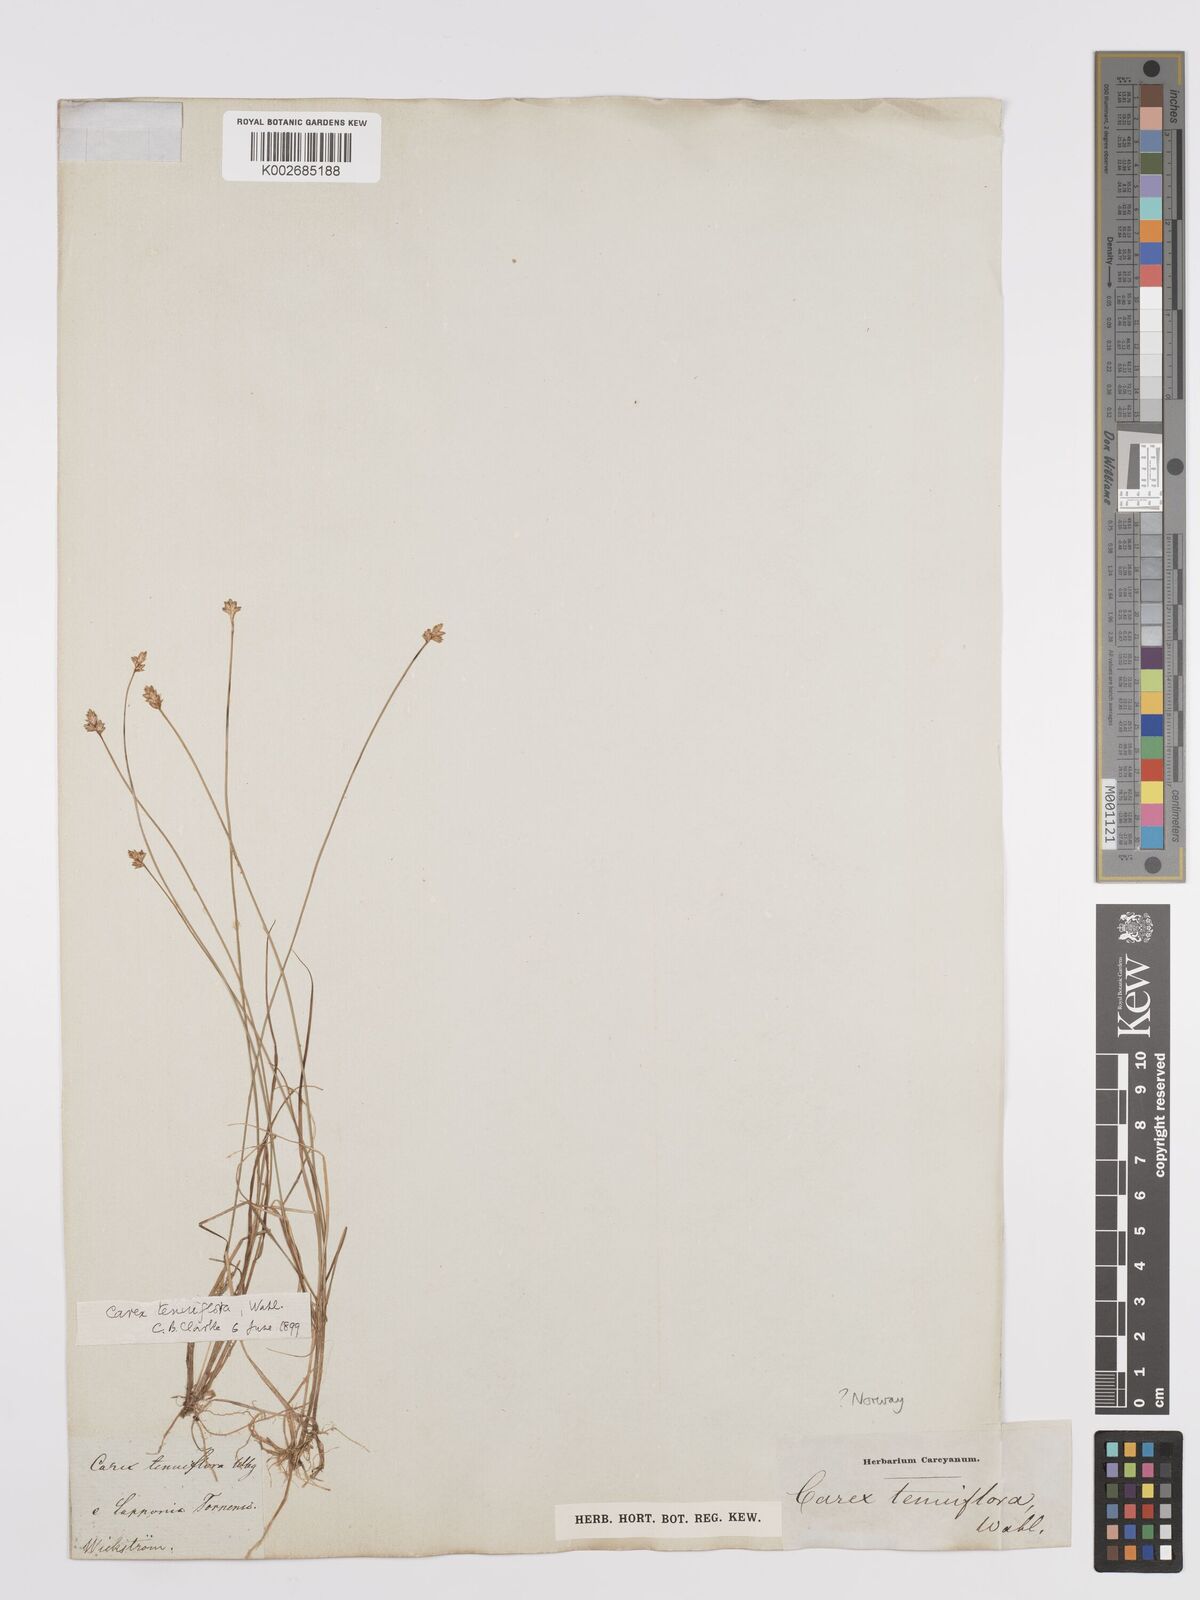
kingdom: Plantae
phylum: Tracheophyta
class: Liliopsida
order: Poales
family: Cyperaceae
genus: Carex
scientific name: Carex tenuiflora
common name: Sparse-flowered sedge
